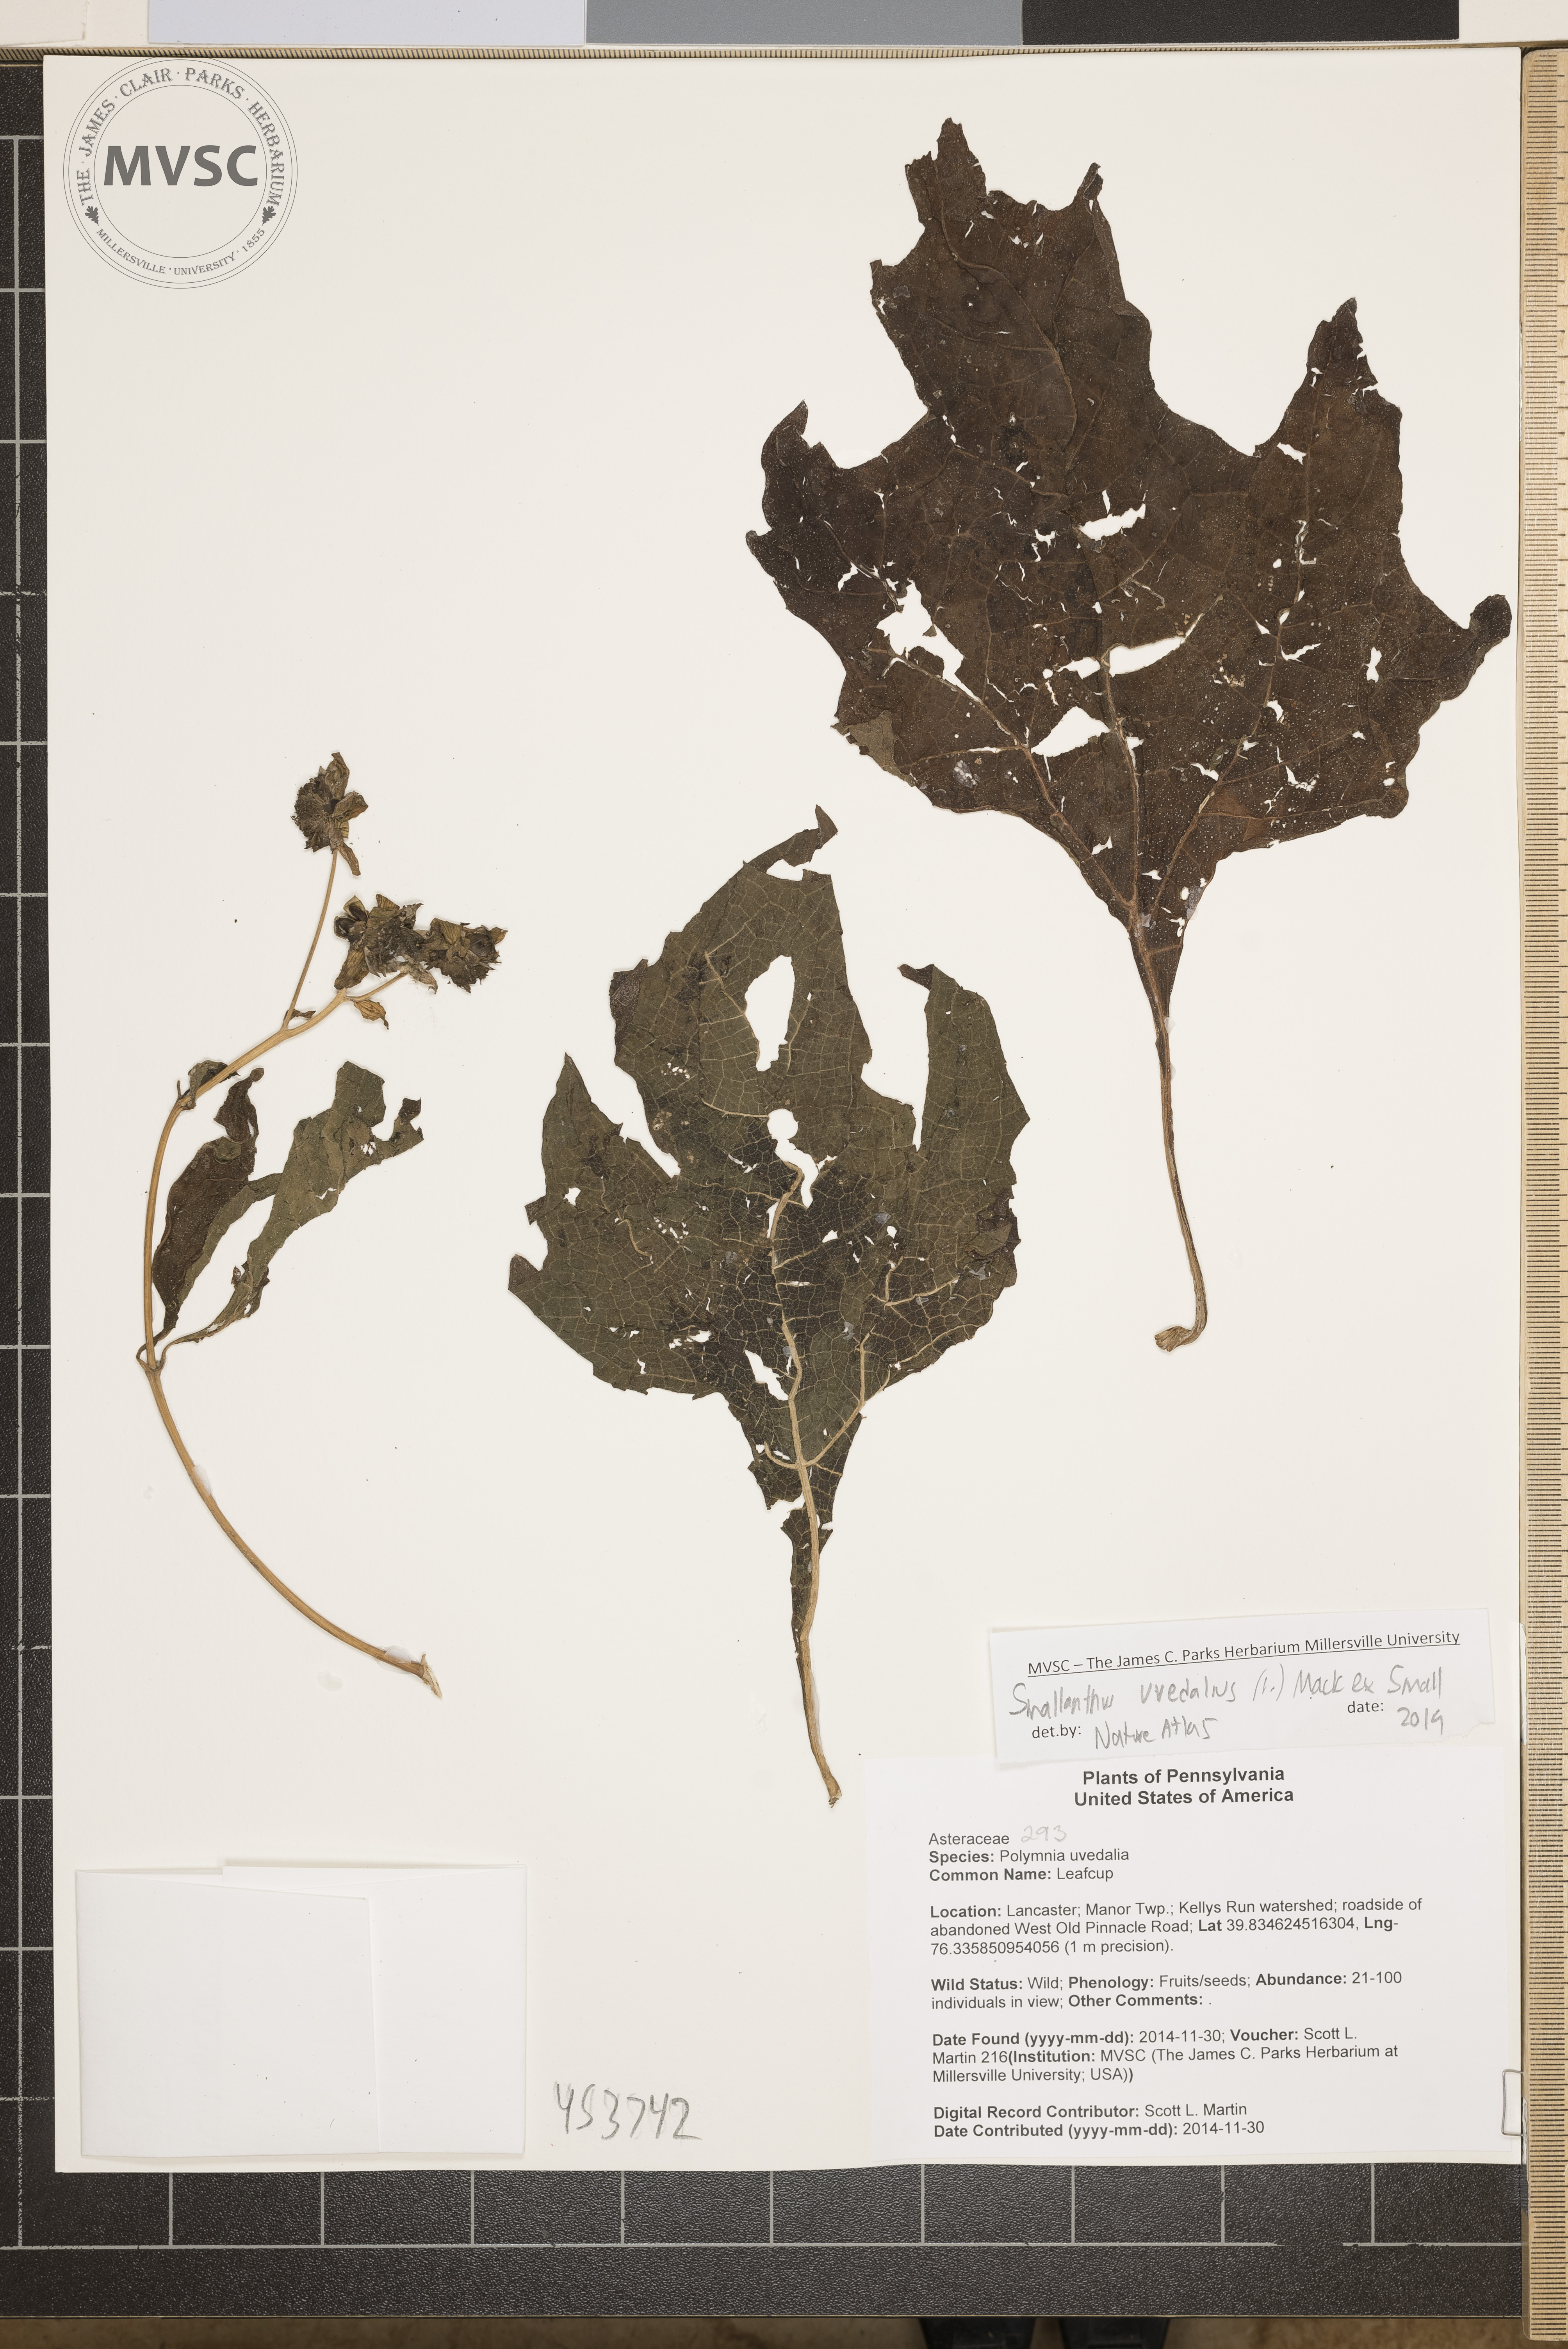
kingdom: Plantae
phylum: Tracheophyta
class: Magnoliopsida
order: Asterales
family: Asteraceae
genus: Smallanthus
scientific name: Smallanthus uvedalia
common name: Leafcup
